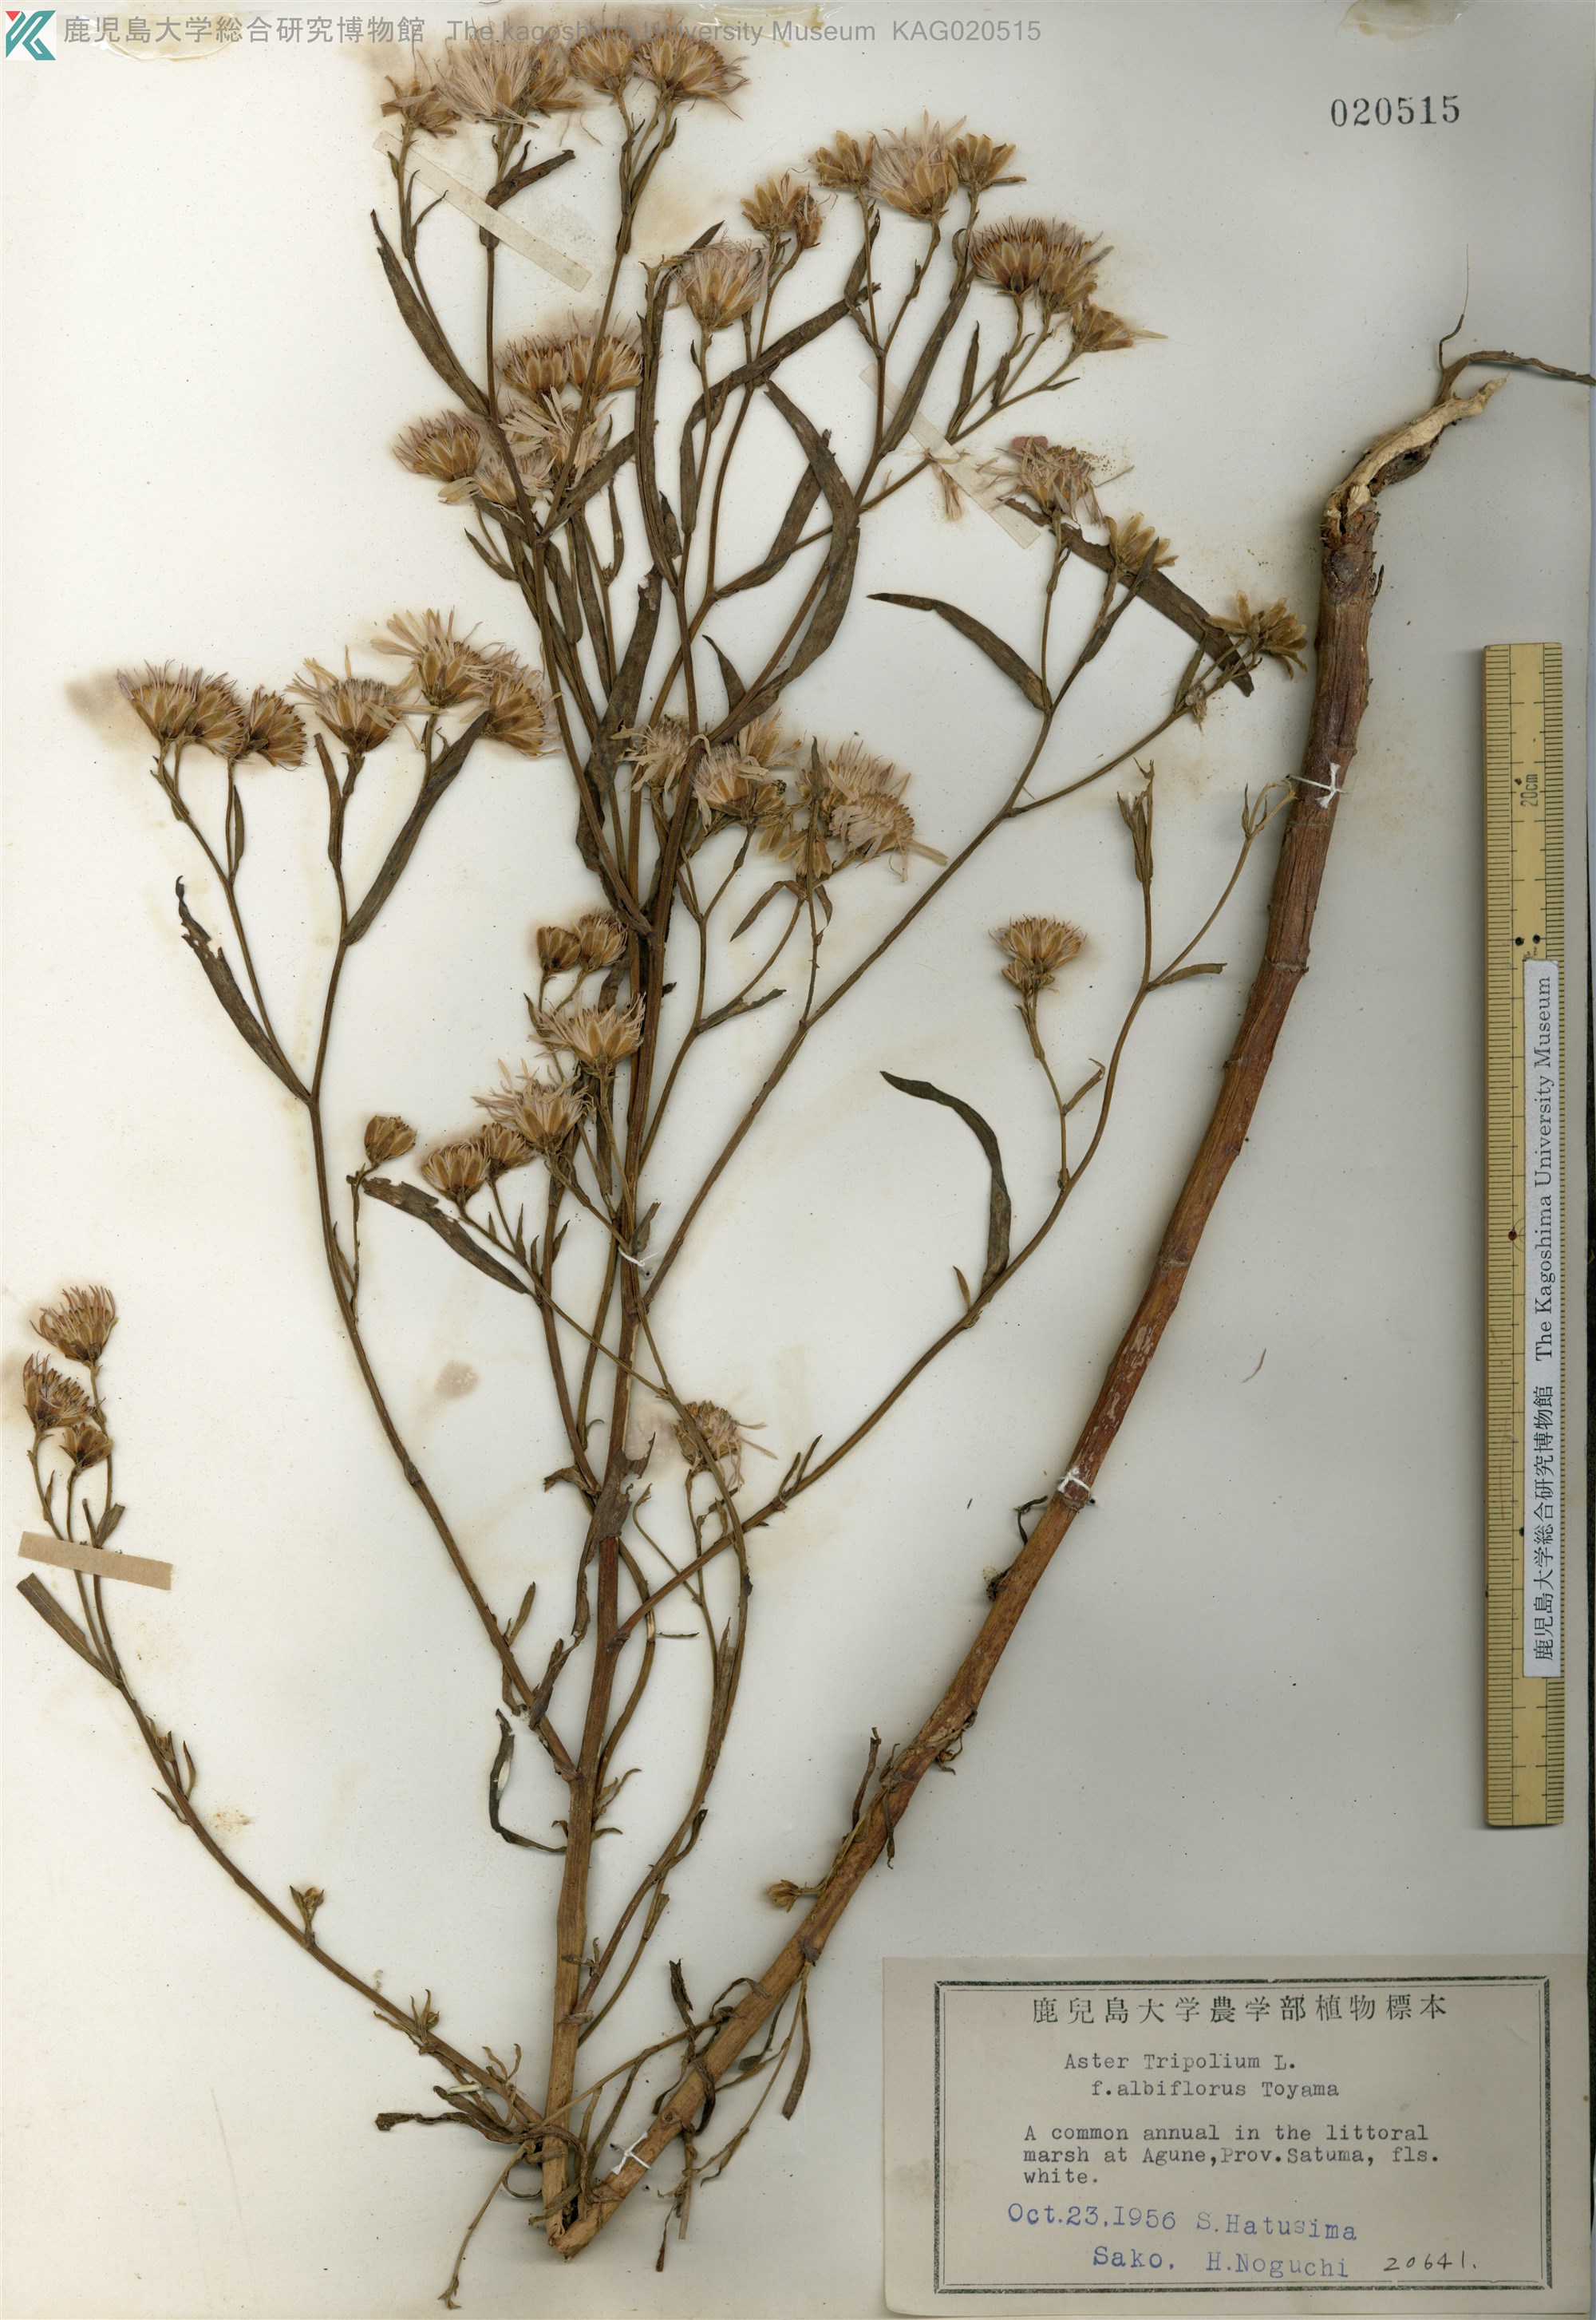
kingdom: Plantae
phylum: Tracheophyta
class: Magnoliopsida
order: Asterales
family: Asteraceae
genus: Tripolium
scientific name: Tripolium pannonicum
